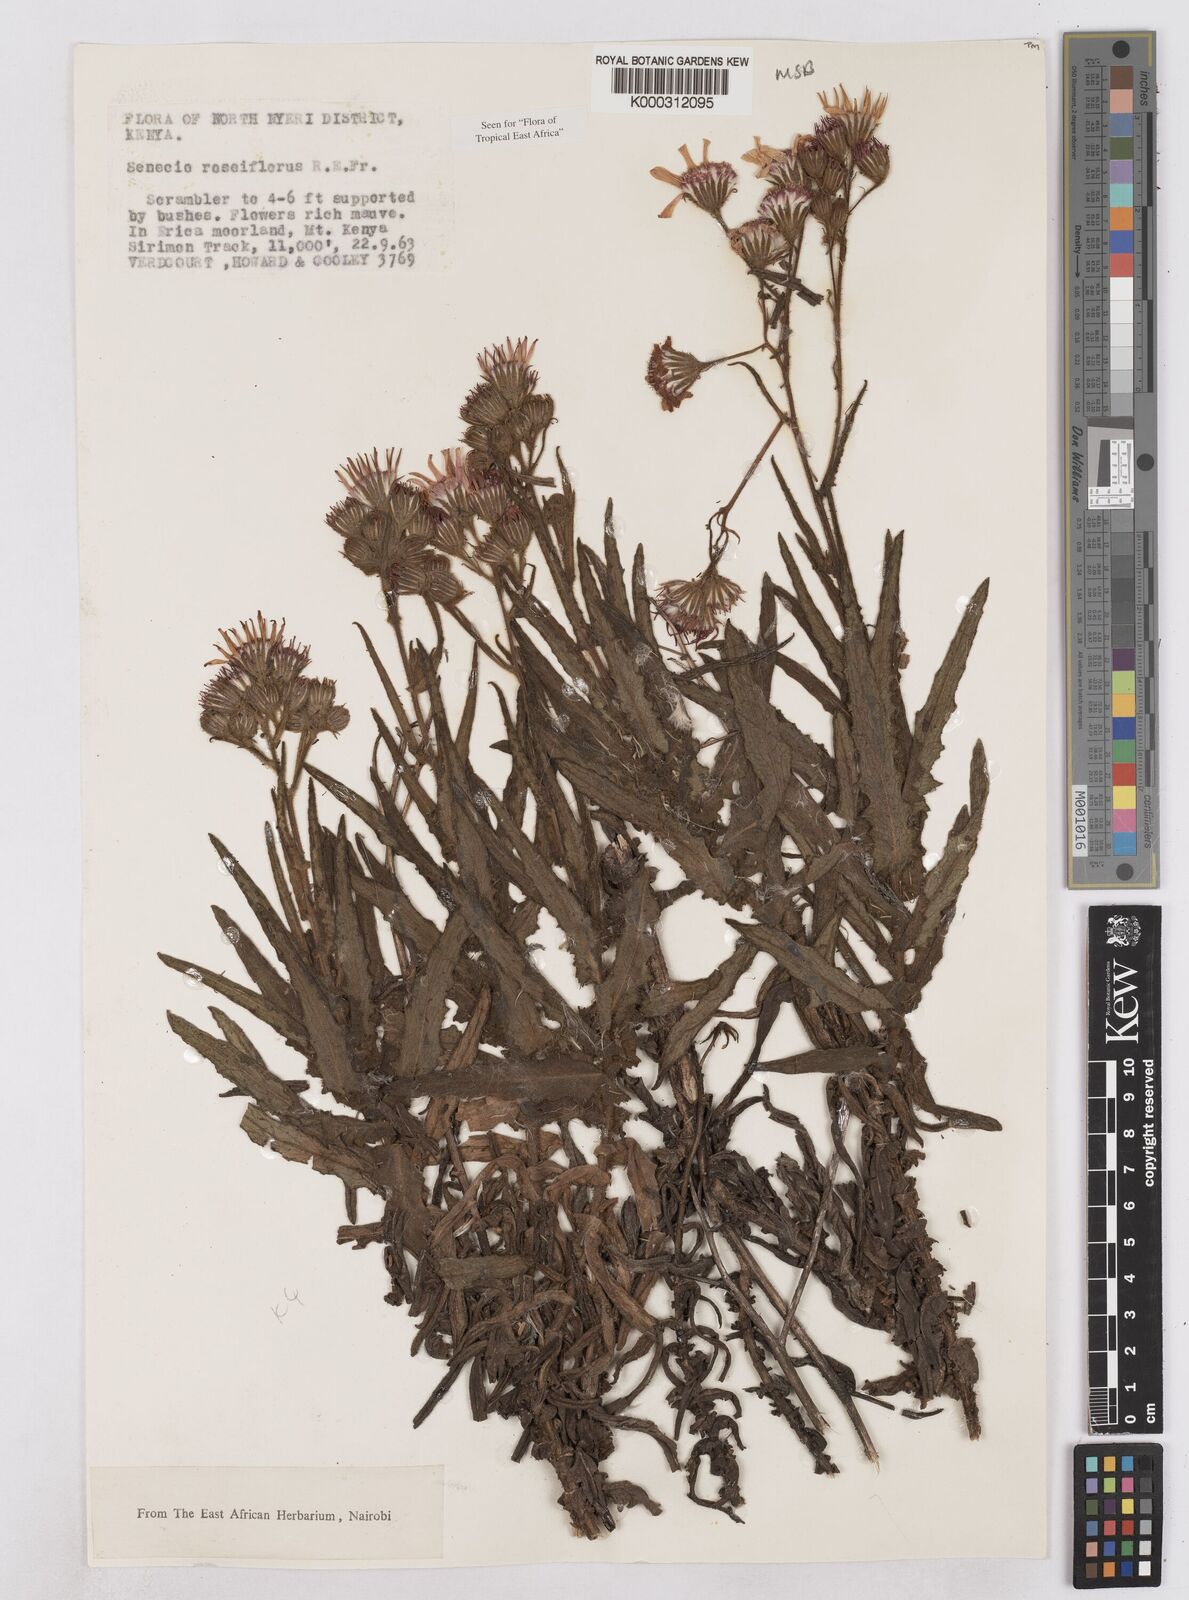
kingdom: Plantae
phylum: Tracheophyta
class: Magnoliopsida
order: Asterales
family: Asteraceae
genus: Senecio
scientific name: Senecio roseiflorus
